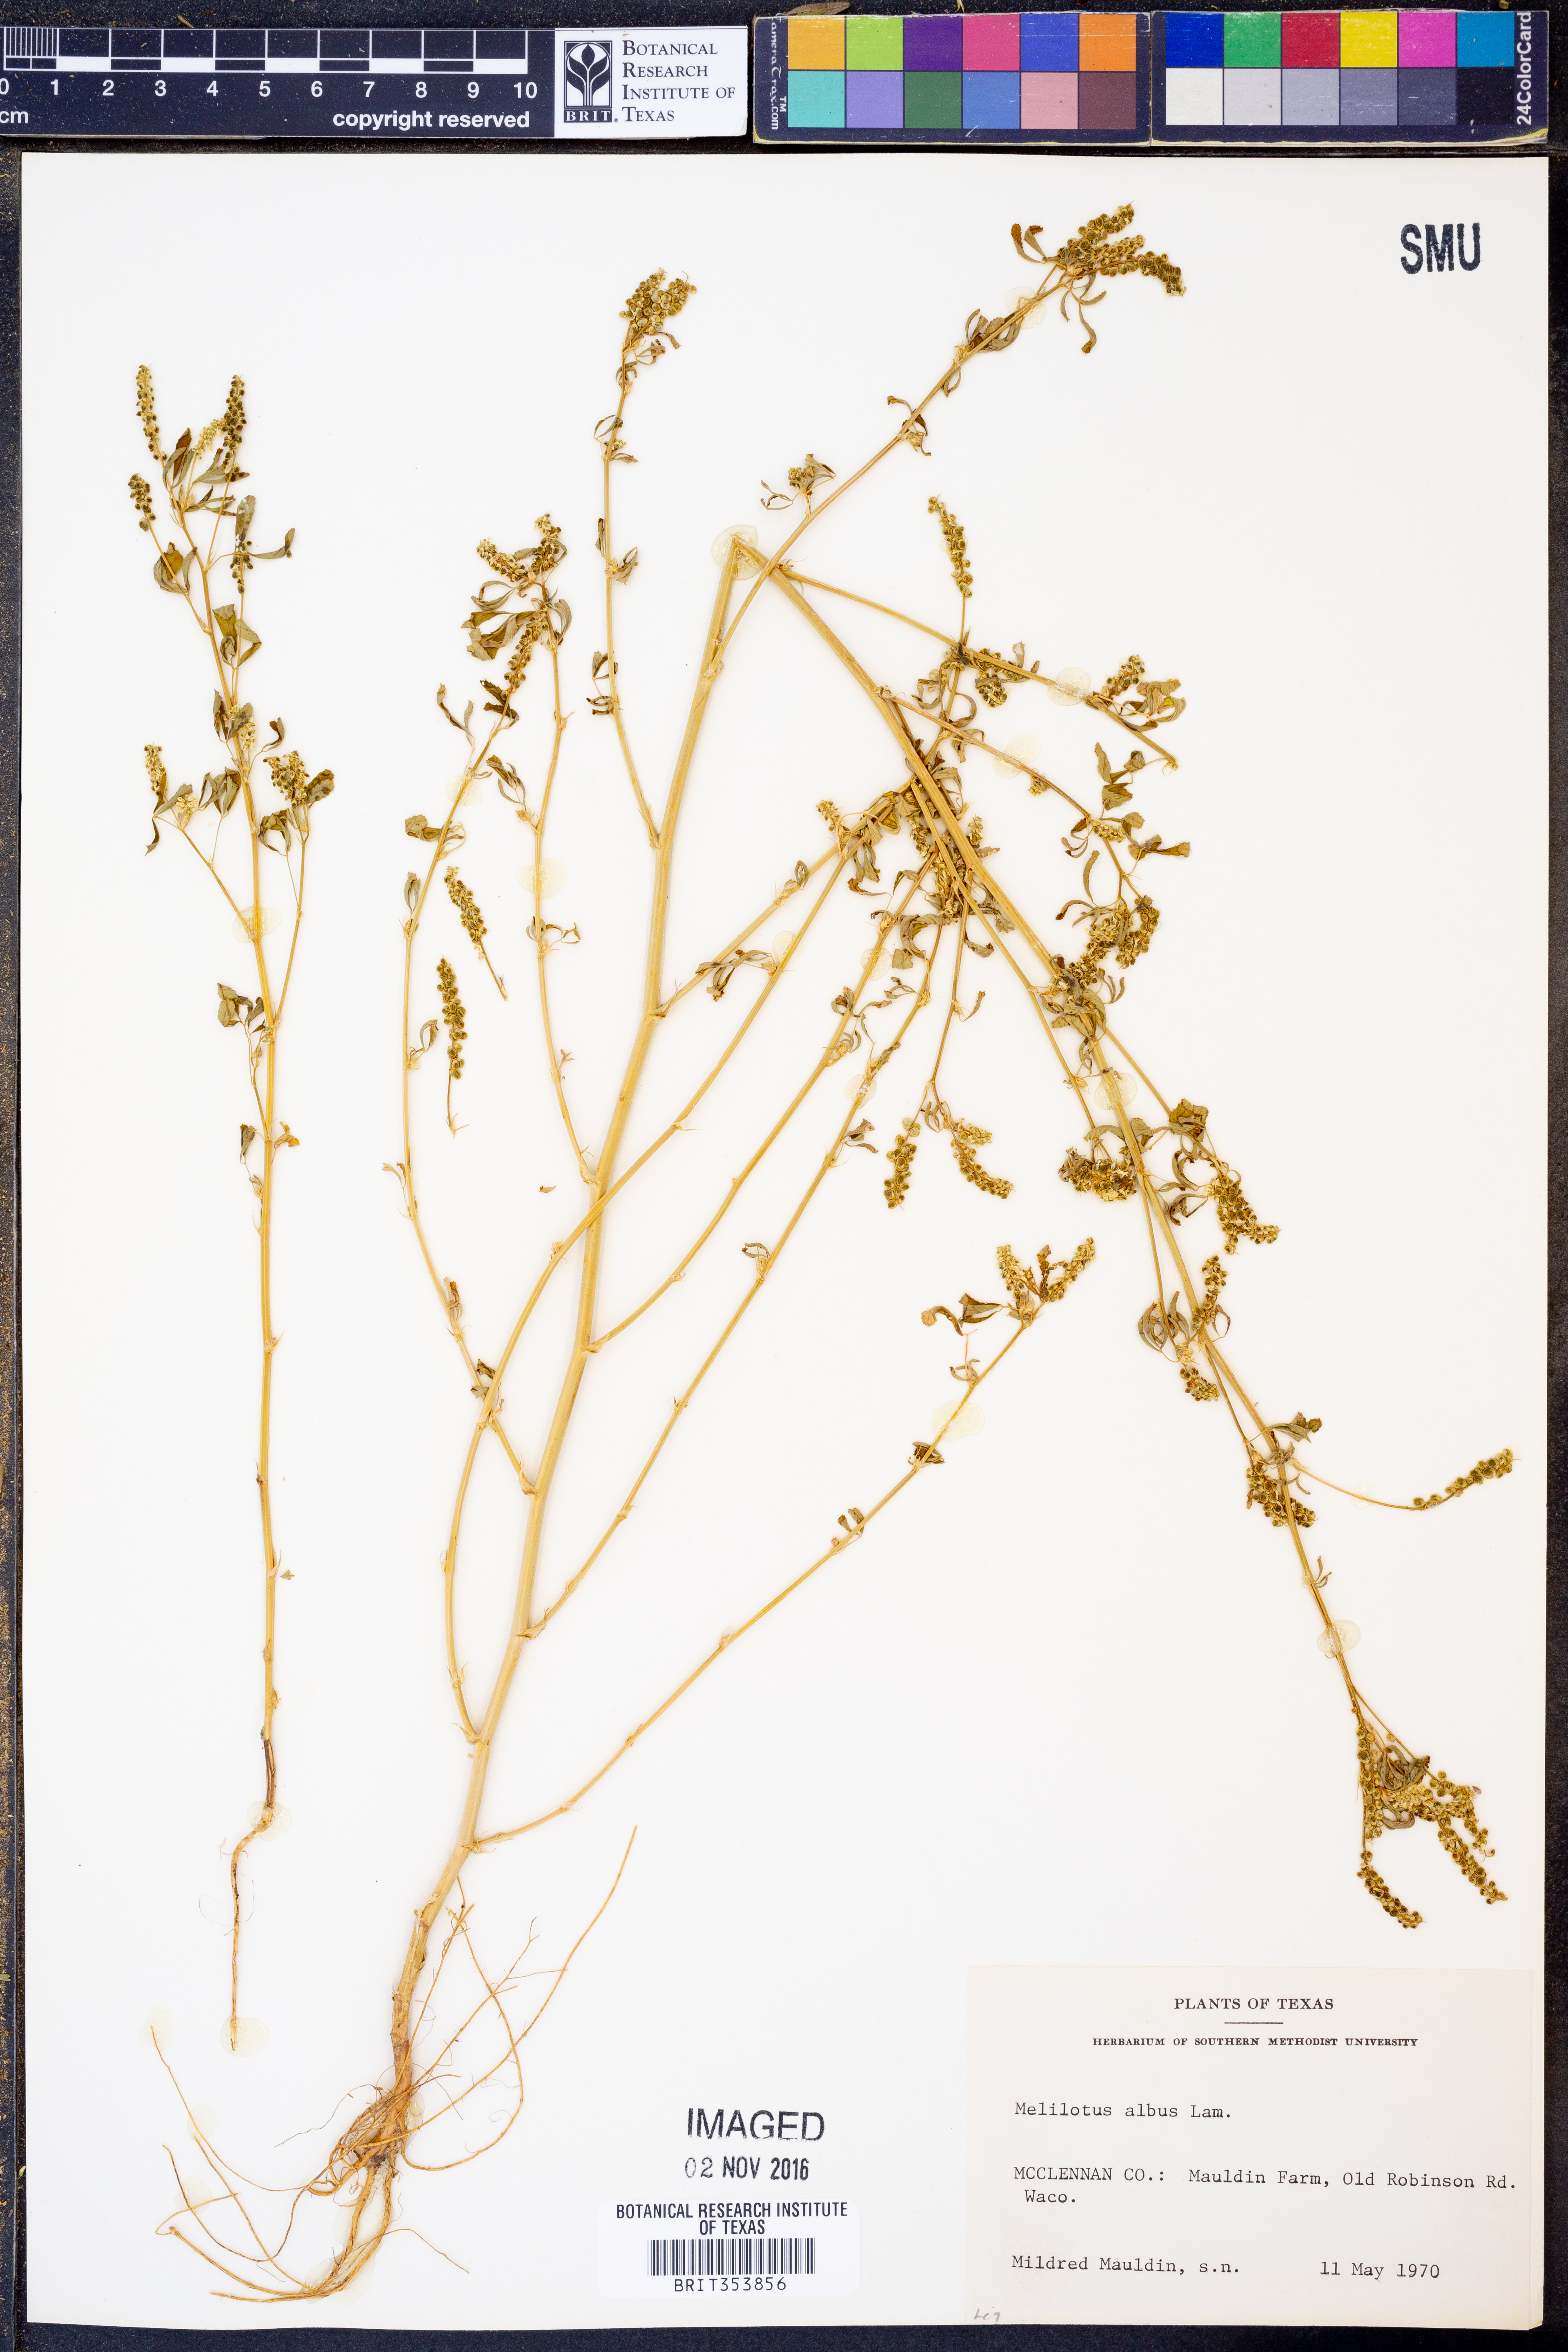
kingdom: Plantae
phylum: Tracheophyta
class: Magnoliopsida
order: Fabales
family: Fabaceae
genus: Melilotus
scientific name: Melilotus albus
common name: White melilot
